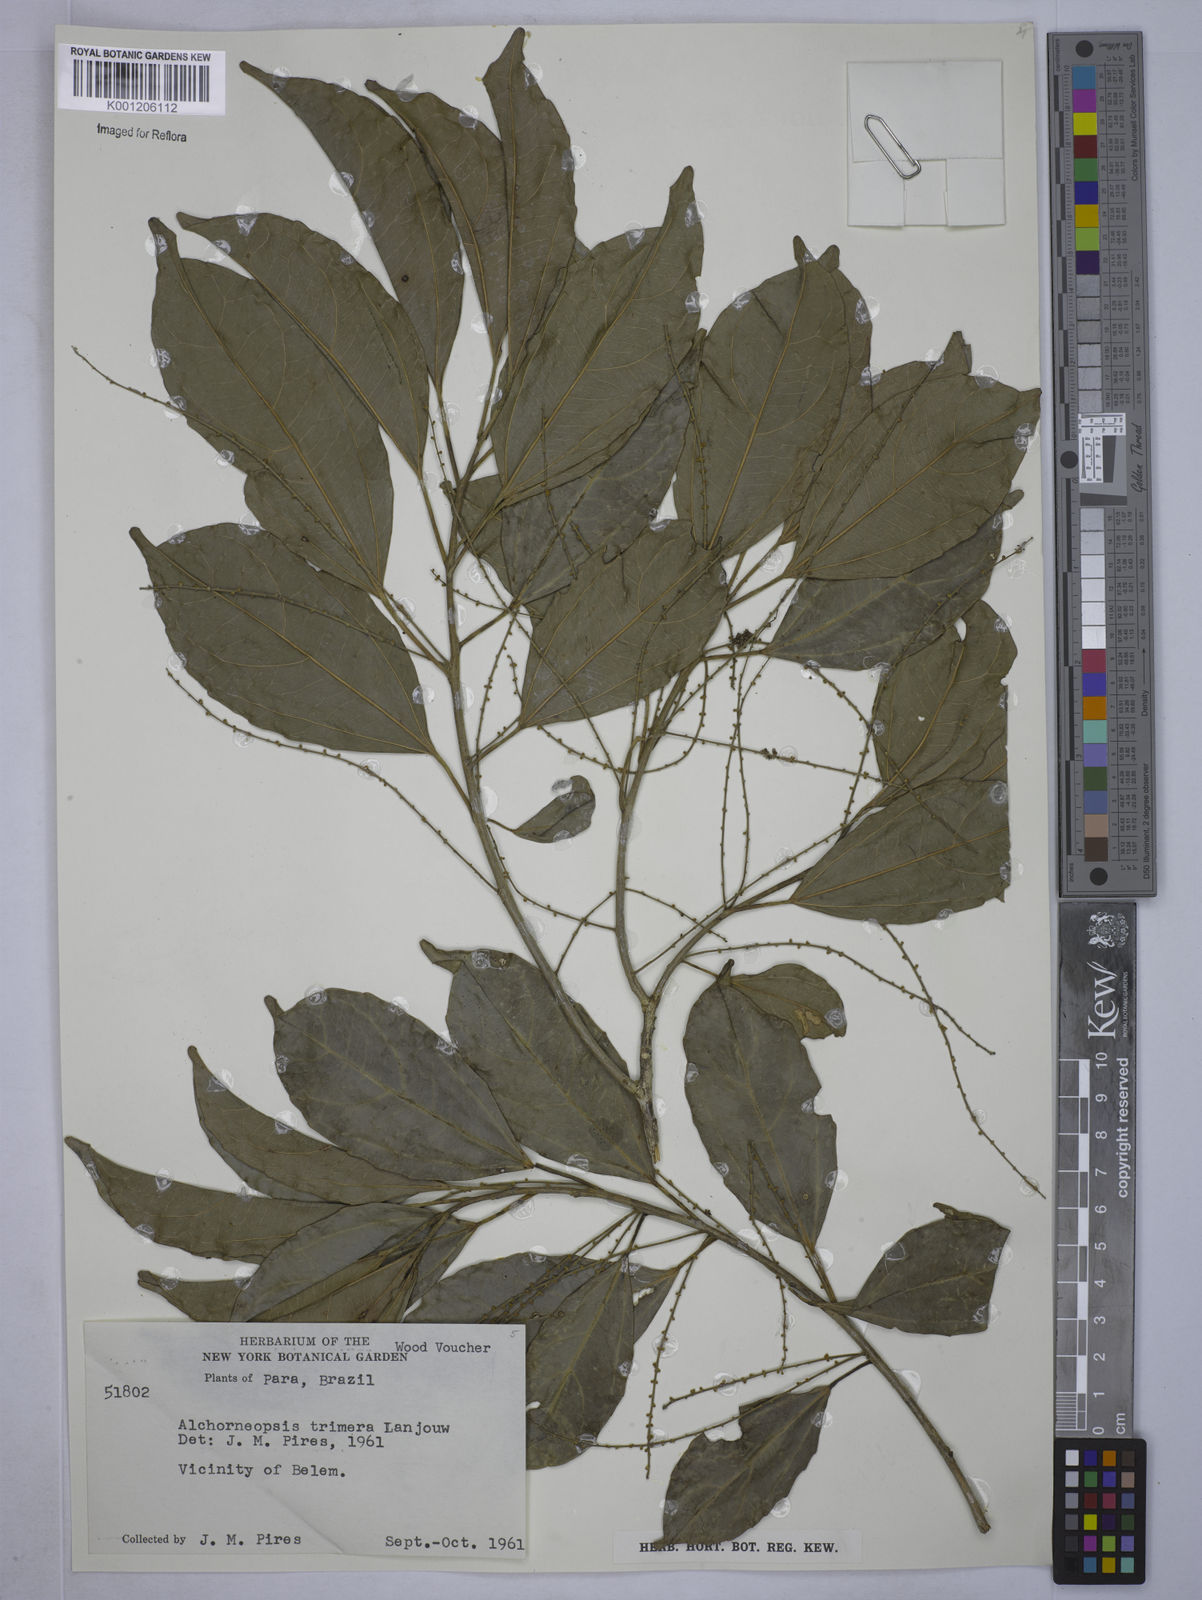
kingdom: Plantae
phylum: Tracheophyta
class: Magnoliopsida
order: Malpighiales
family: Euphorbiaceae
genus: Alchorneopsis
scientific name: Alchorneopsis
